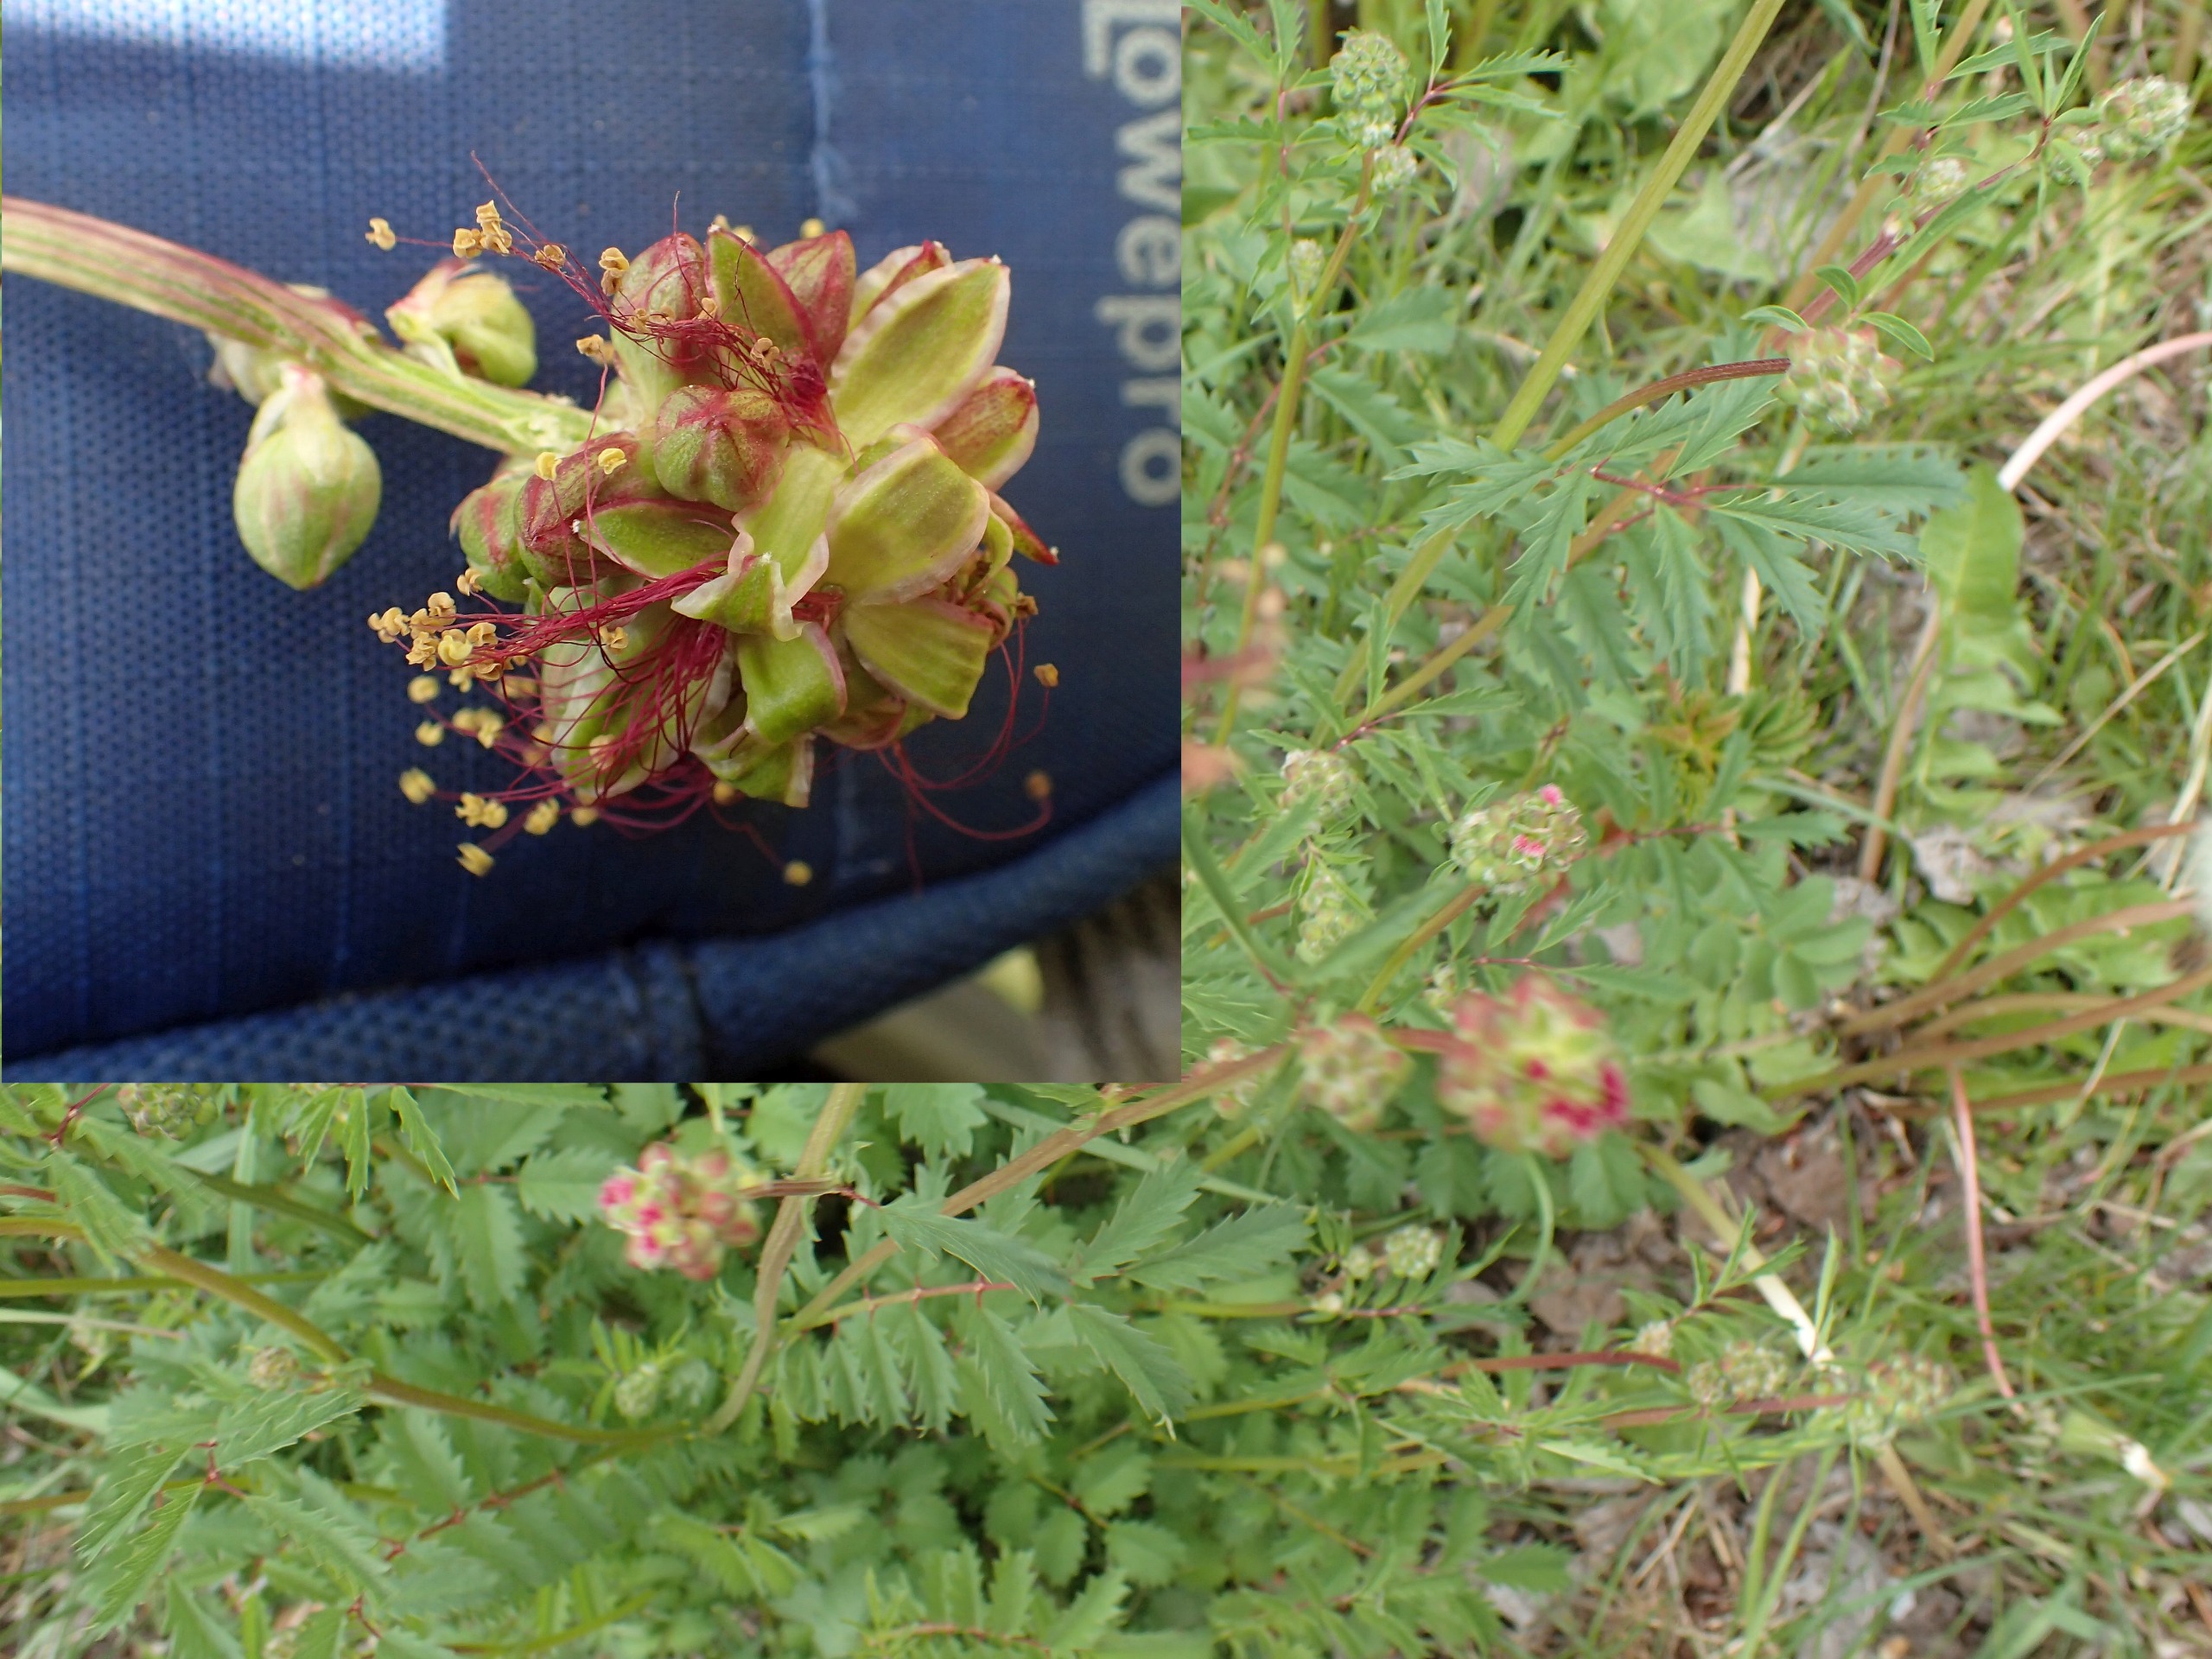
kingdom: Plantae
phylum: Tracheophyta
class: Magnoliopsida
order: Rosales
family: Rosaceae
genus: Poterium
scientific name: Poterium sanguisorba
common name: Vingefrøet bibernelle
